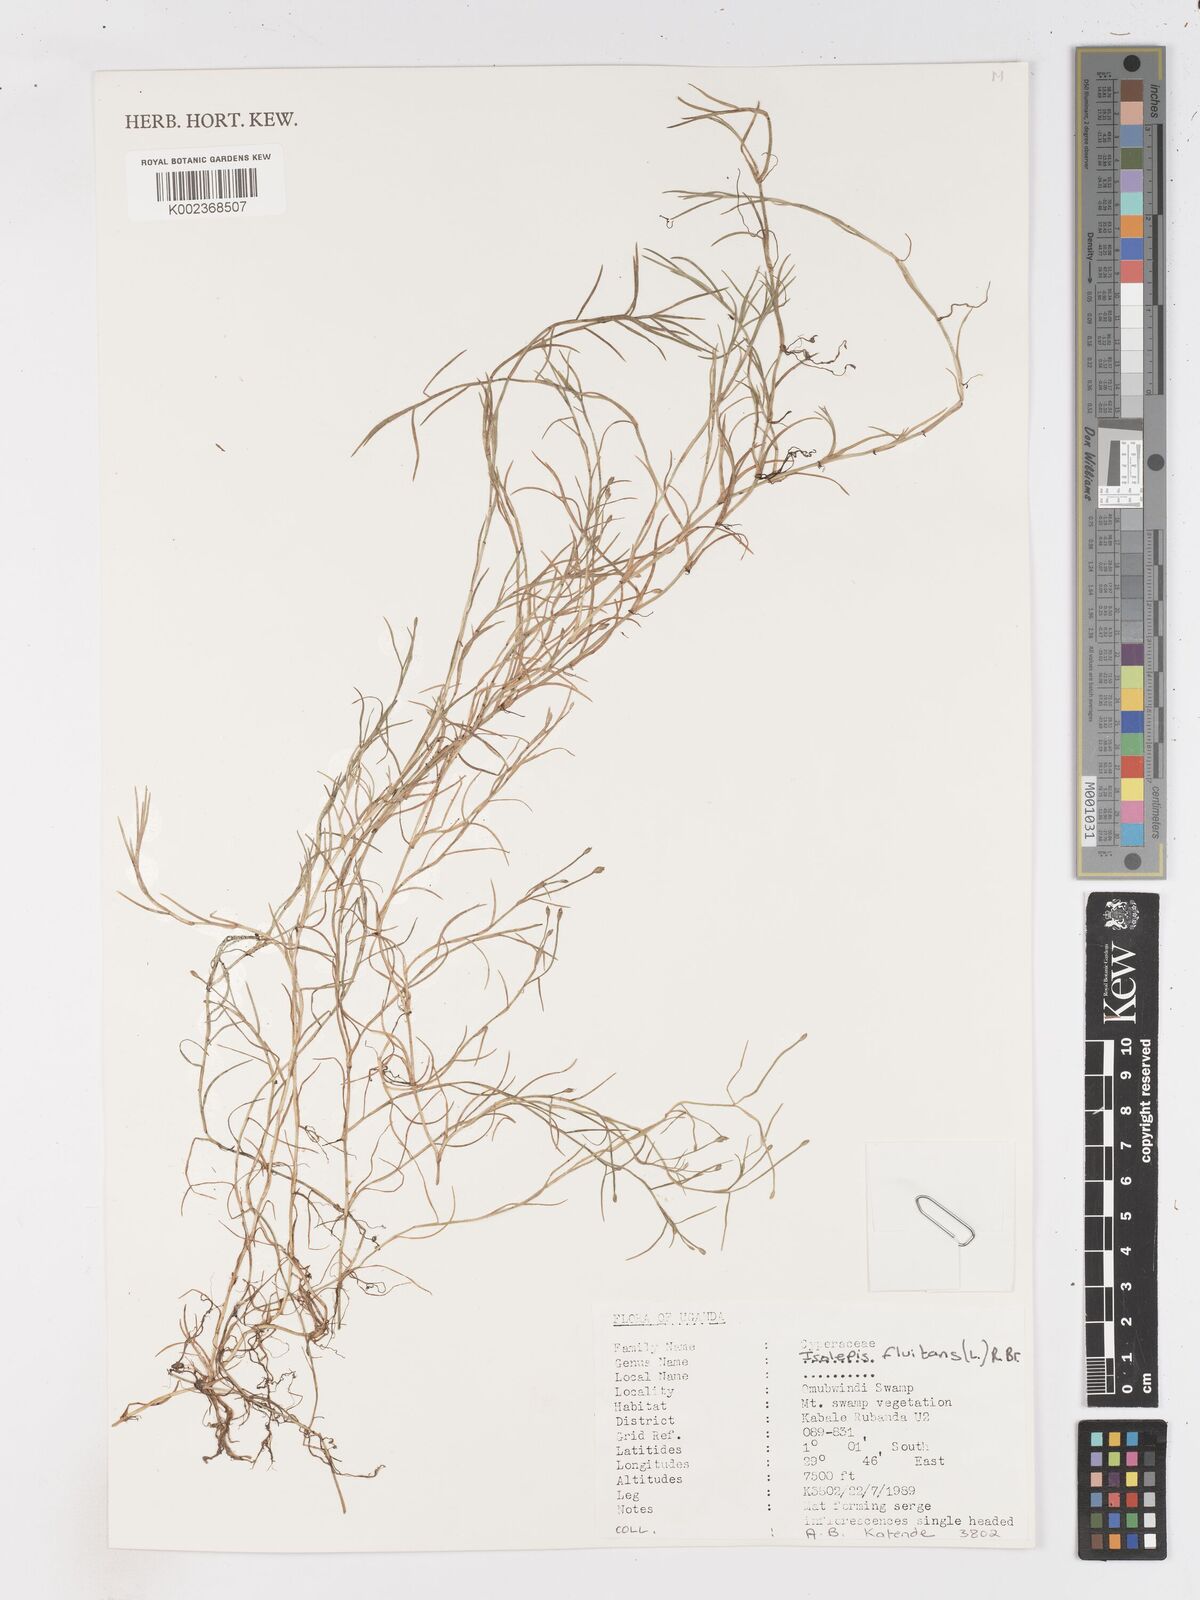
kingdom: Plantae
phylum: Tracheophyta
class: Liliopsida
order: Poales
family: Cyperaceae
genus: Isolepis
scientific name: Isolepis fluitans
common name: Floating club-rush
